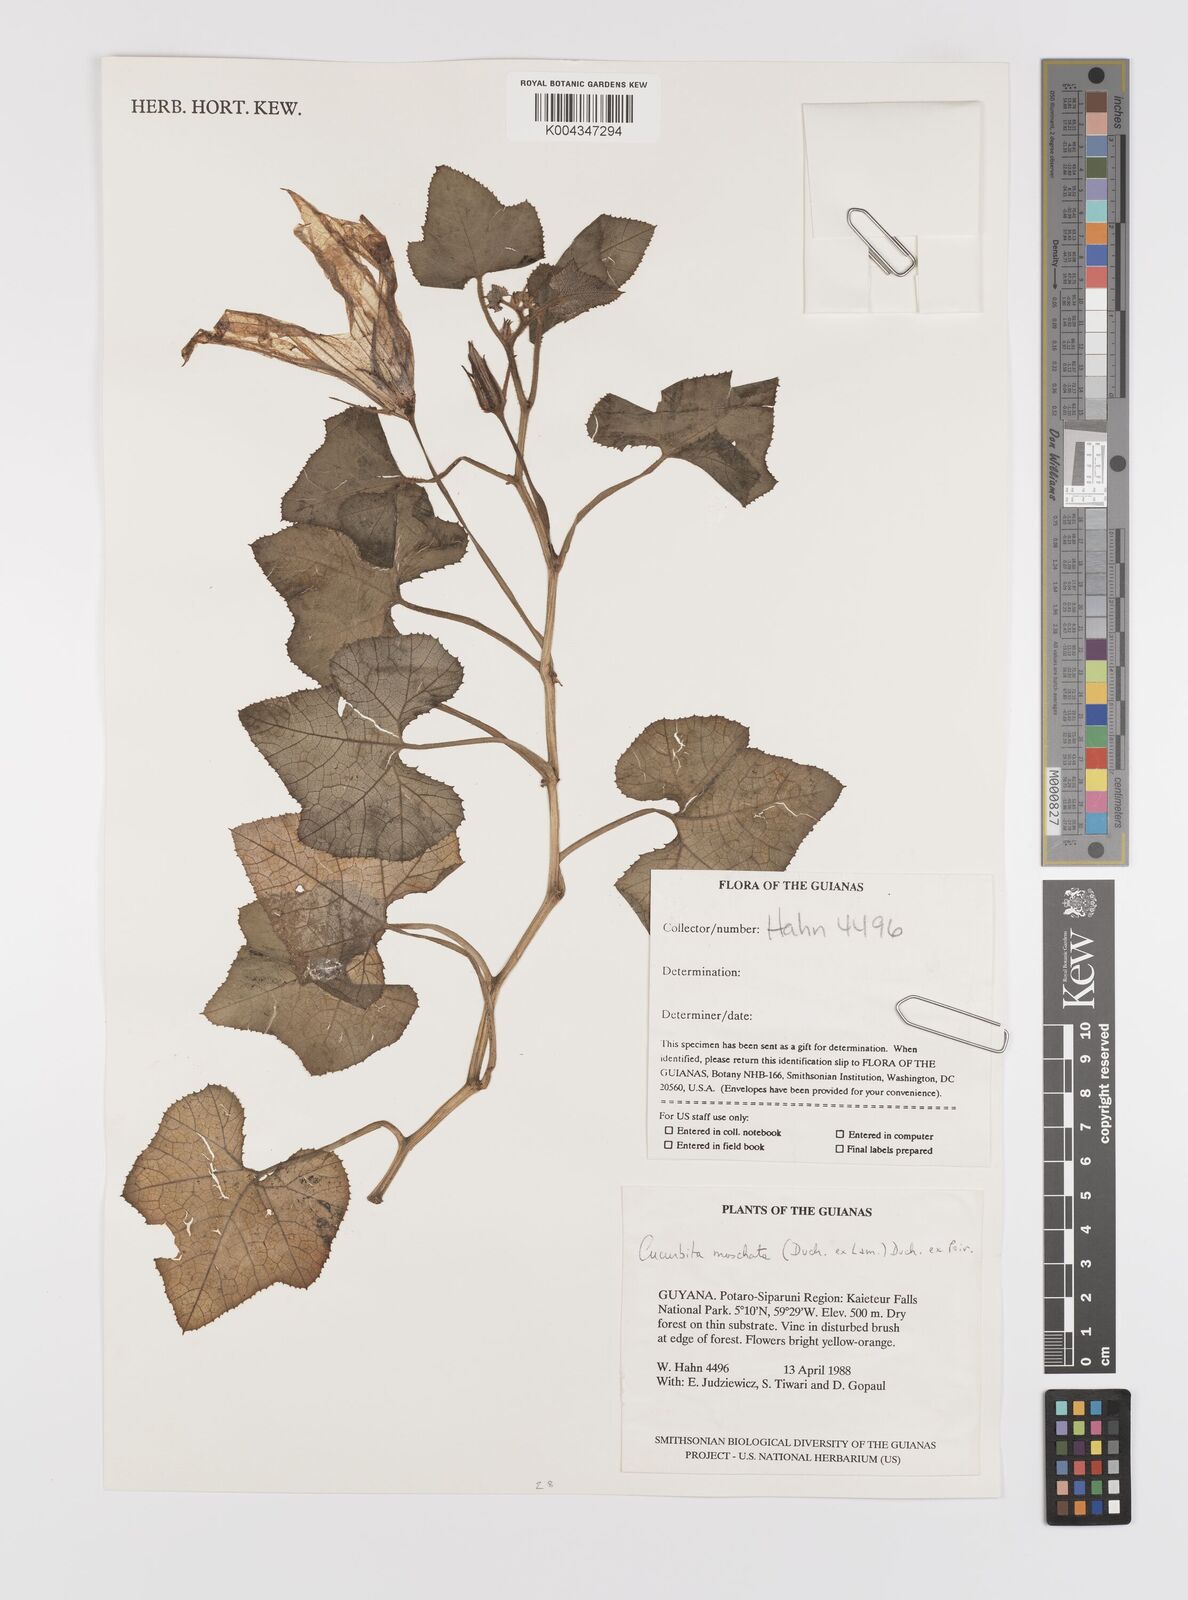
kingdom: Plantae
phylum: Tracheophyta
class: Magnoliopsida
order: Cucurbitales
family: Cucurbitaceae
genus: Cucurbita
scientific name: Cucurbita moschata
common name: Squash / pumpkin
